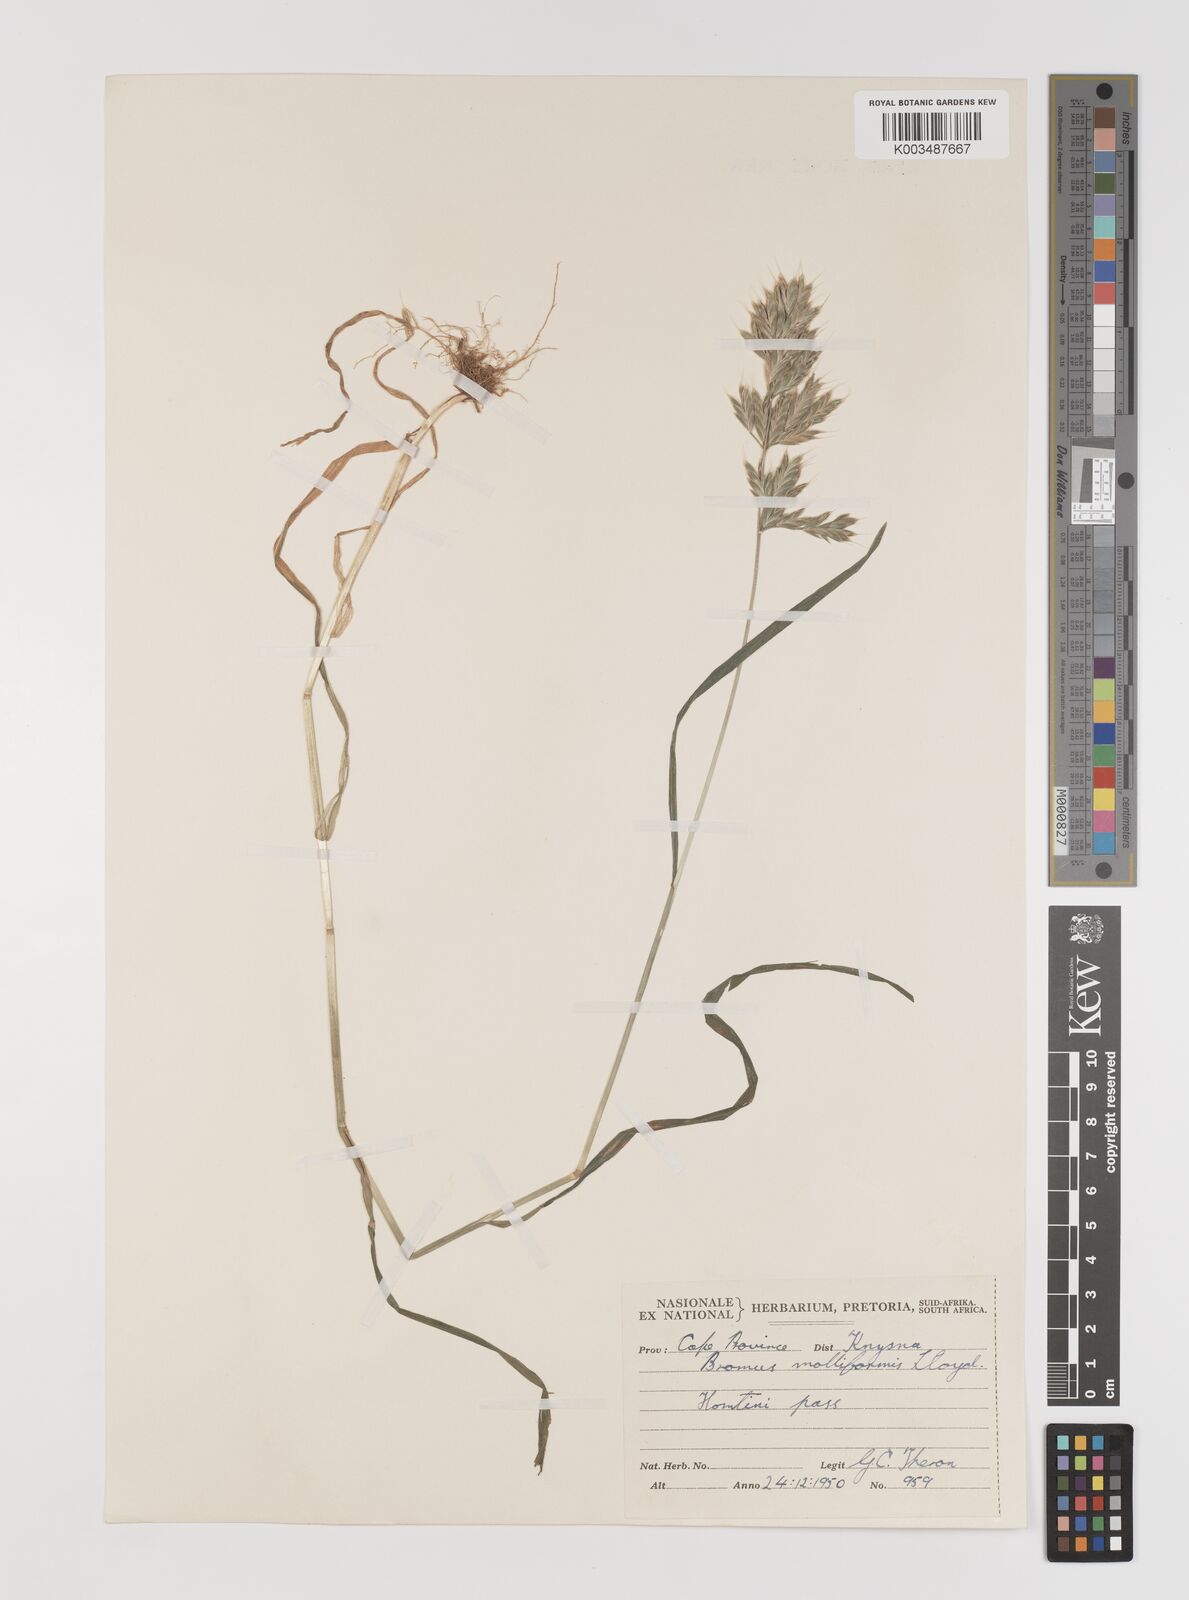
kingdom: Plantae
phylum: Tracheophyta
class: Liliopsida
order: Poales
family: Poaceae
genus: Bromus
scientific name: Bromus hordeaceus
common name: Soft brome
